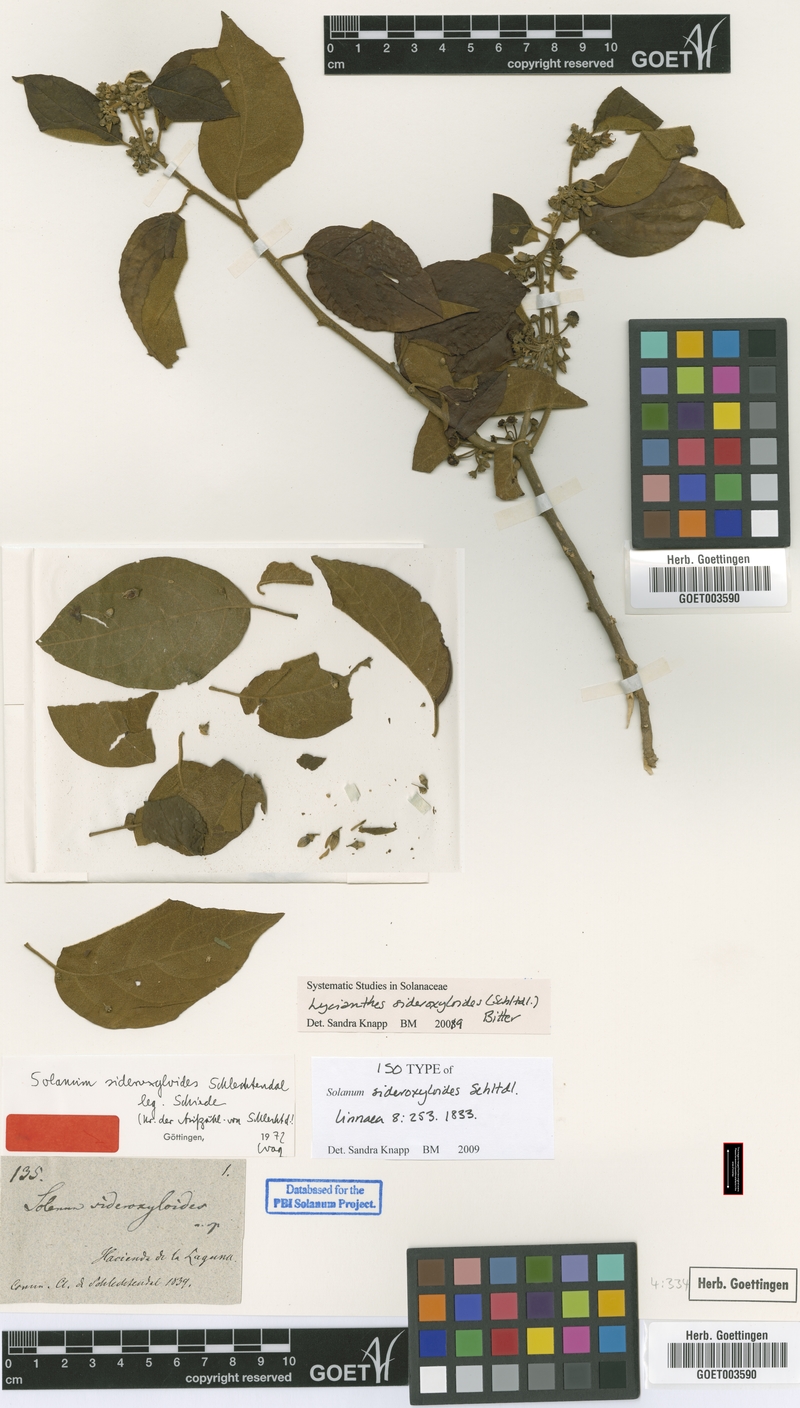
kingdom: Plantae
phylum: Tracheophyta
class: Magnoliopsida
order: Solanales
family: Solanaceae
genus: Lycianthes
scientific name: Lycianthes sideroxyloides
